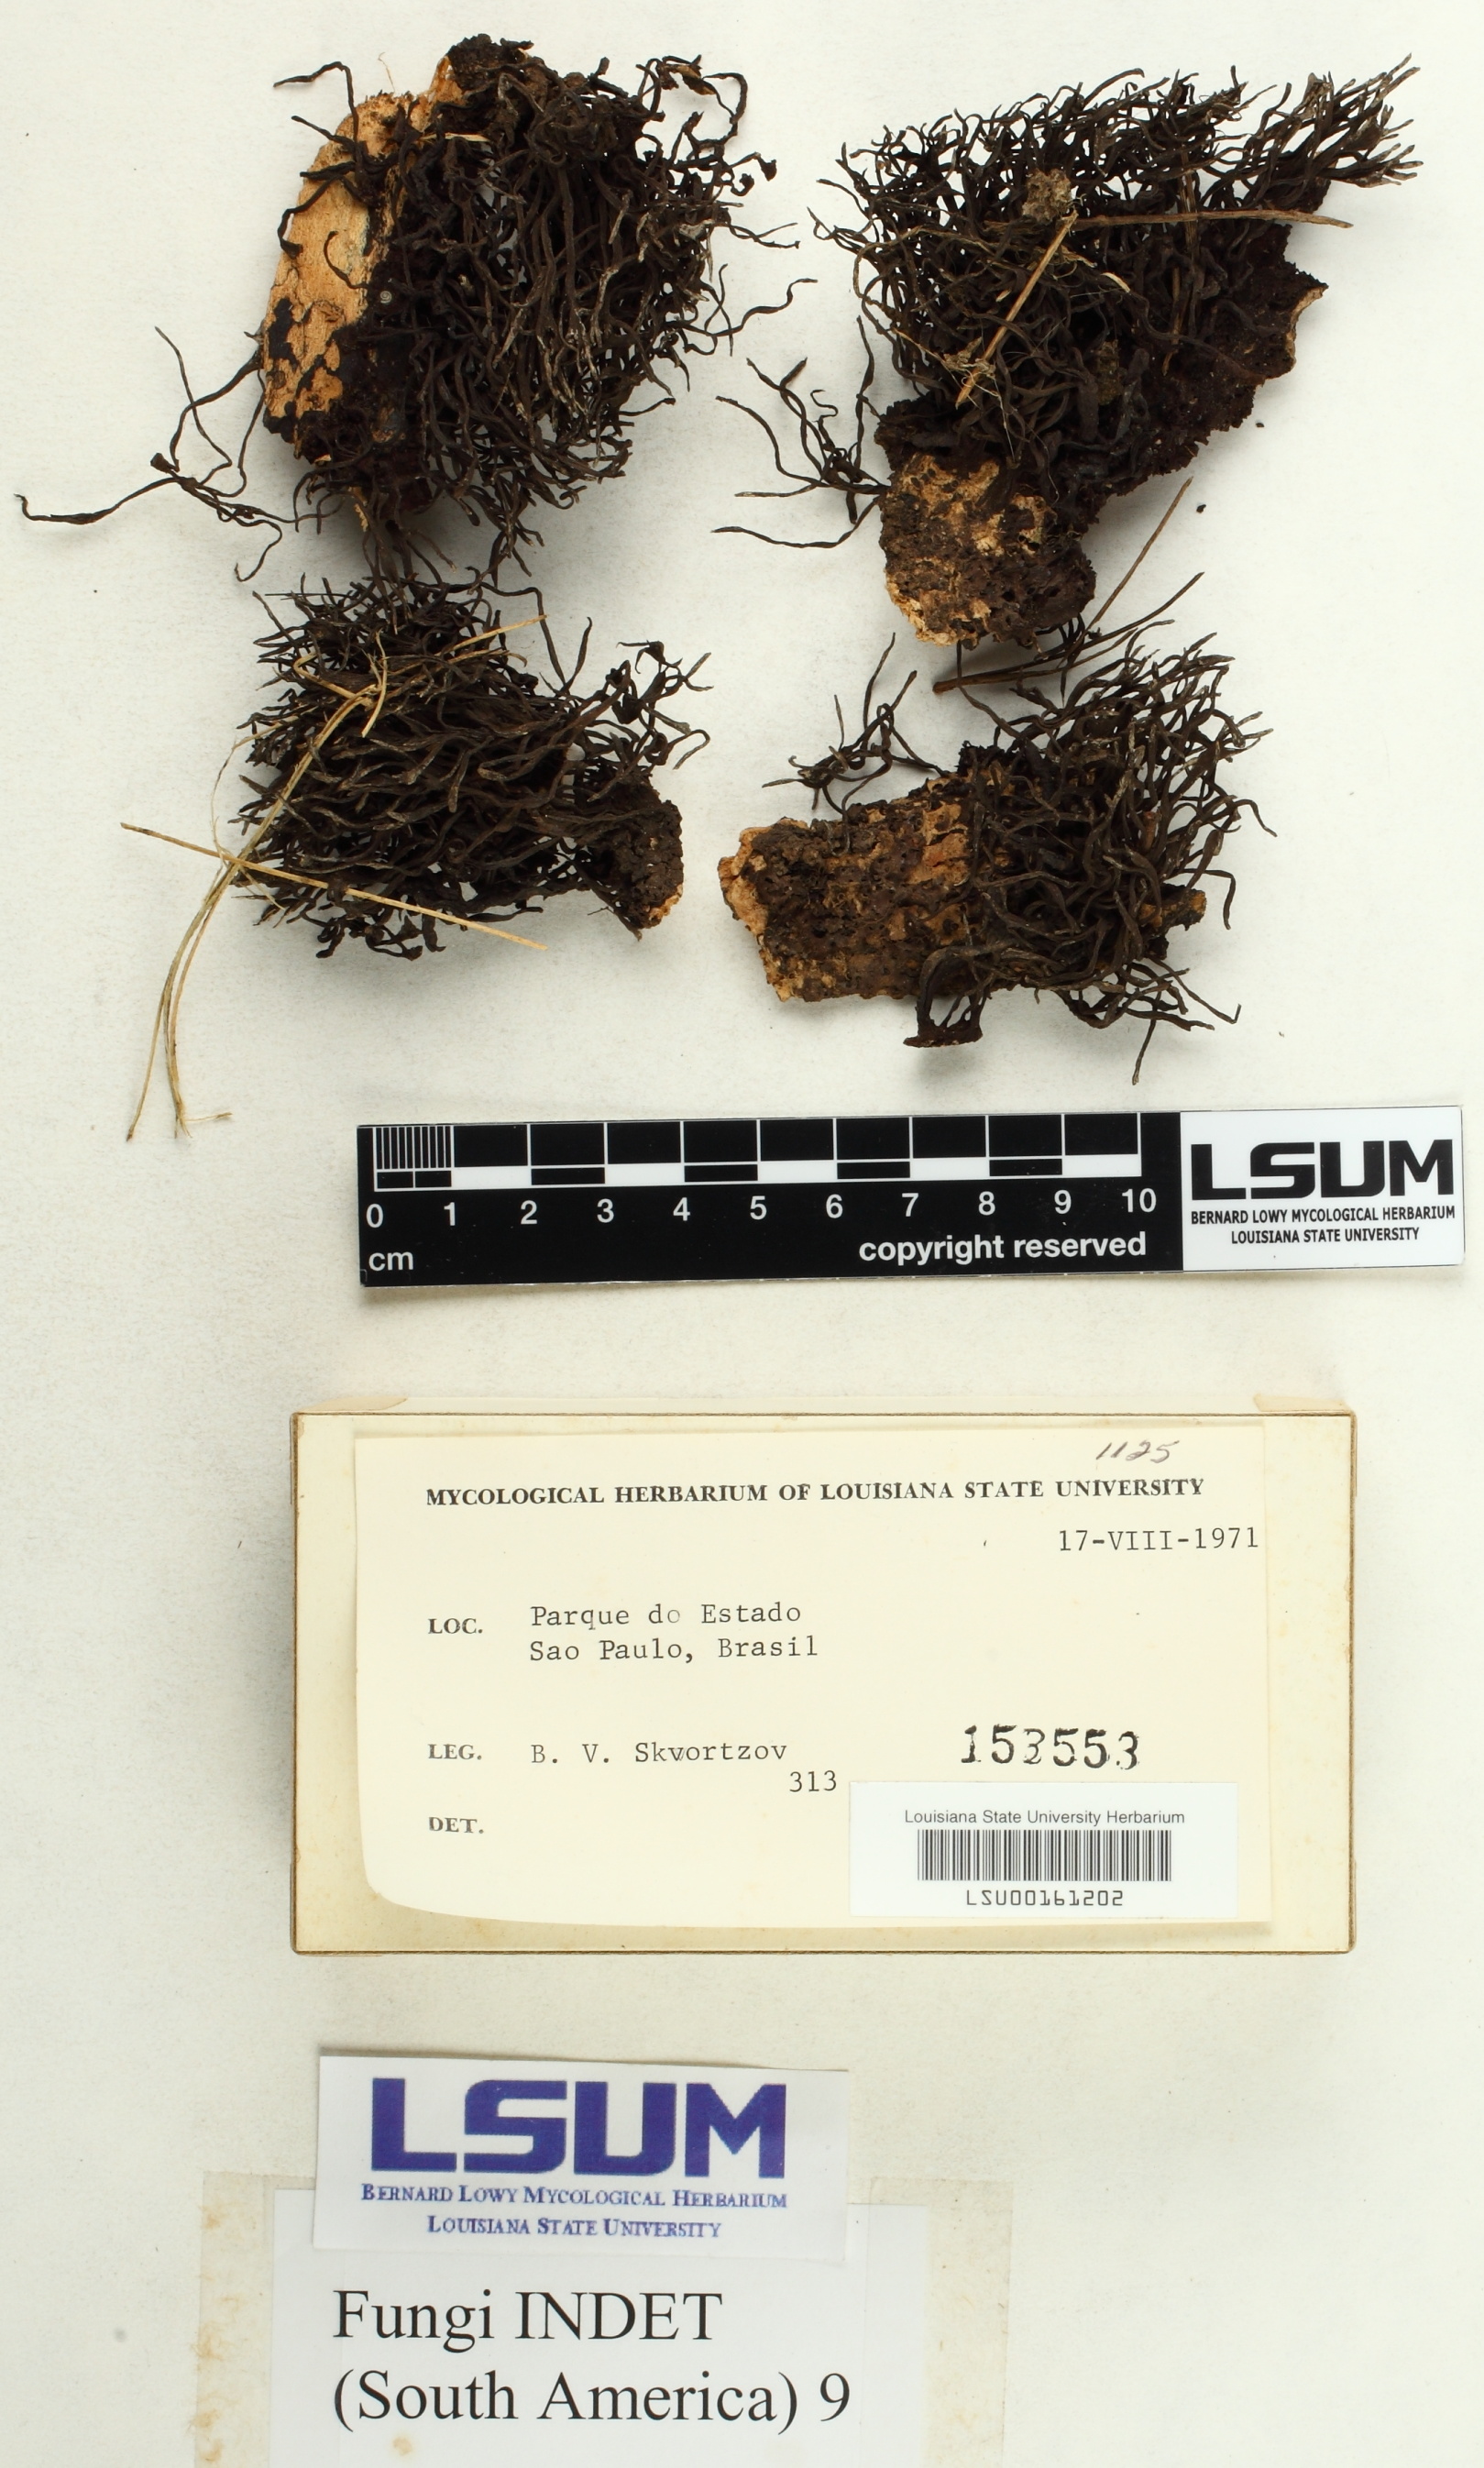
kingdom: Fungi
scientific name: Fungi
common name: Fungi
